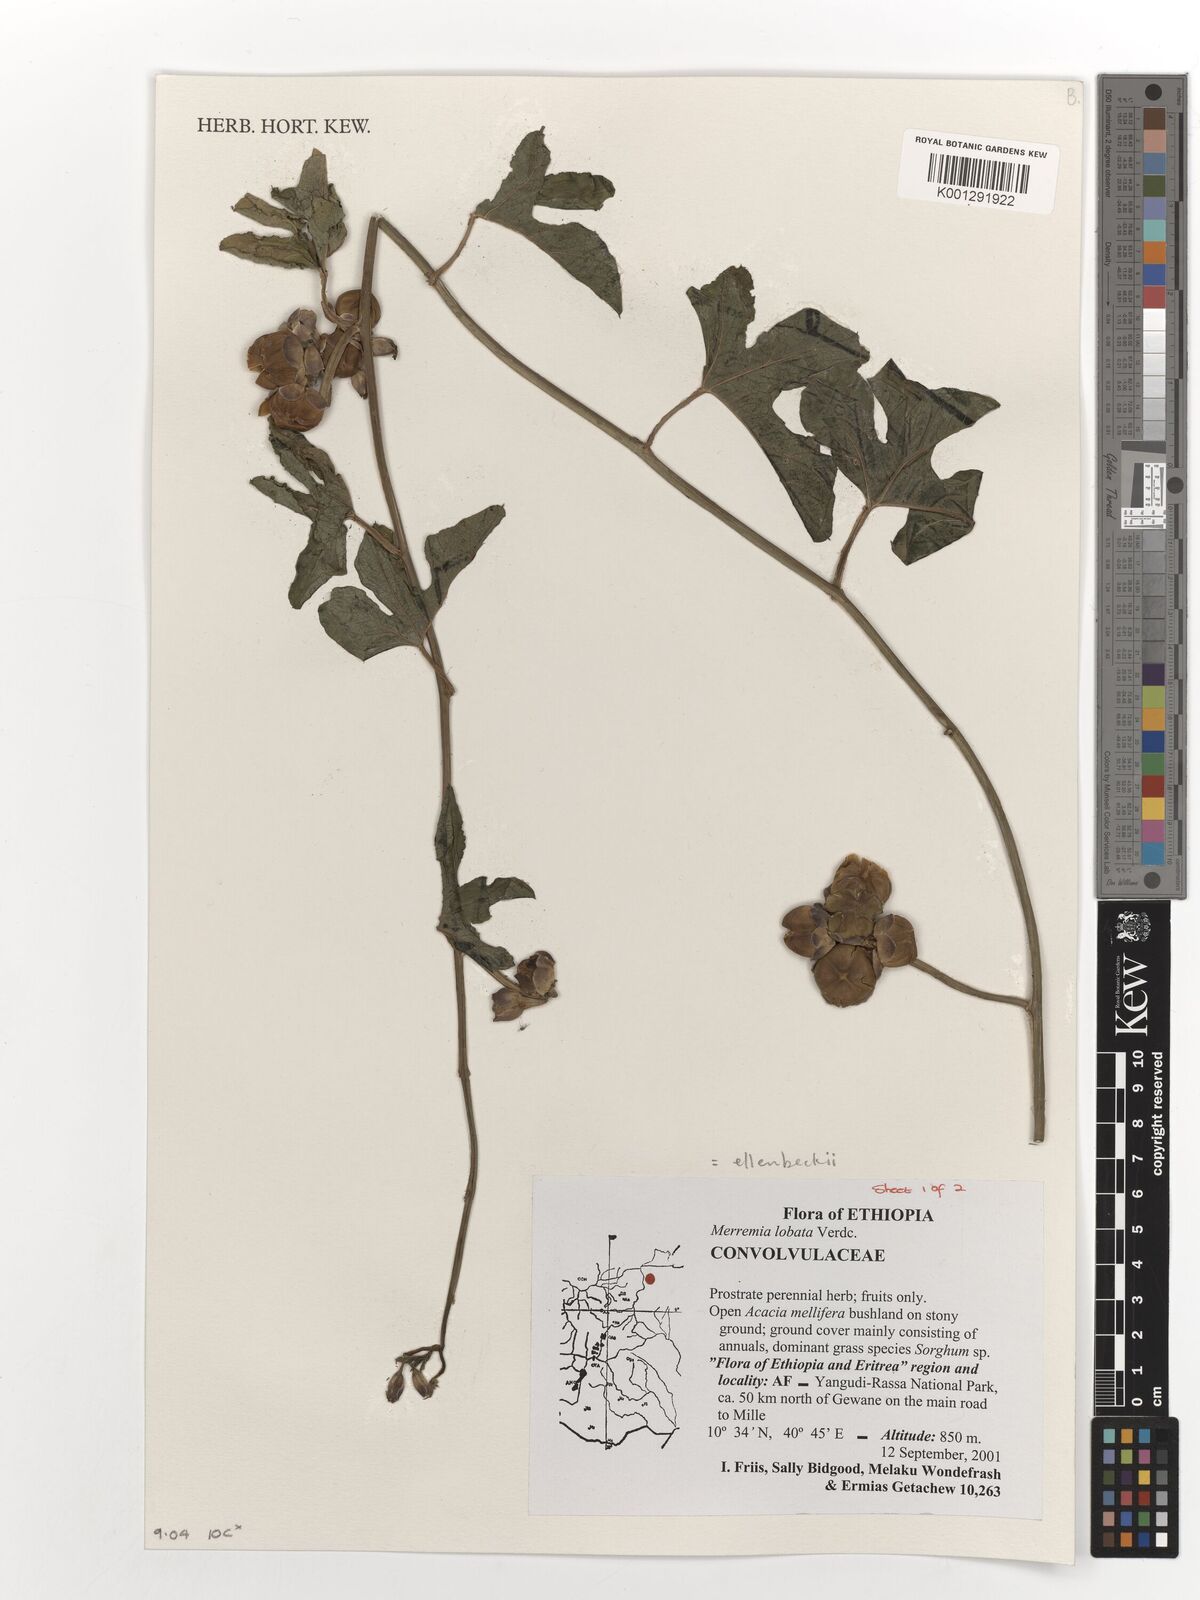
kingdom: Plantae
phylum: Tracheophyta
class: Magnoliopsida
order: Solanales
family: Convolvulaceae
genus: Merremia
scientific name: Merremia ellenbeckii
